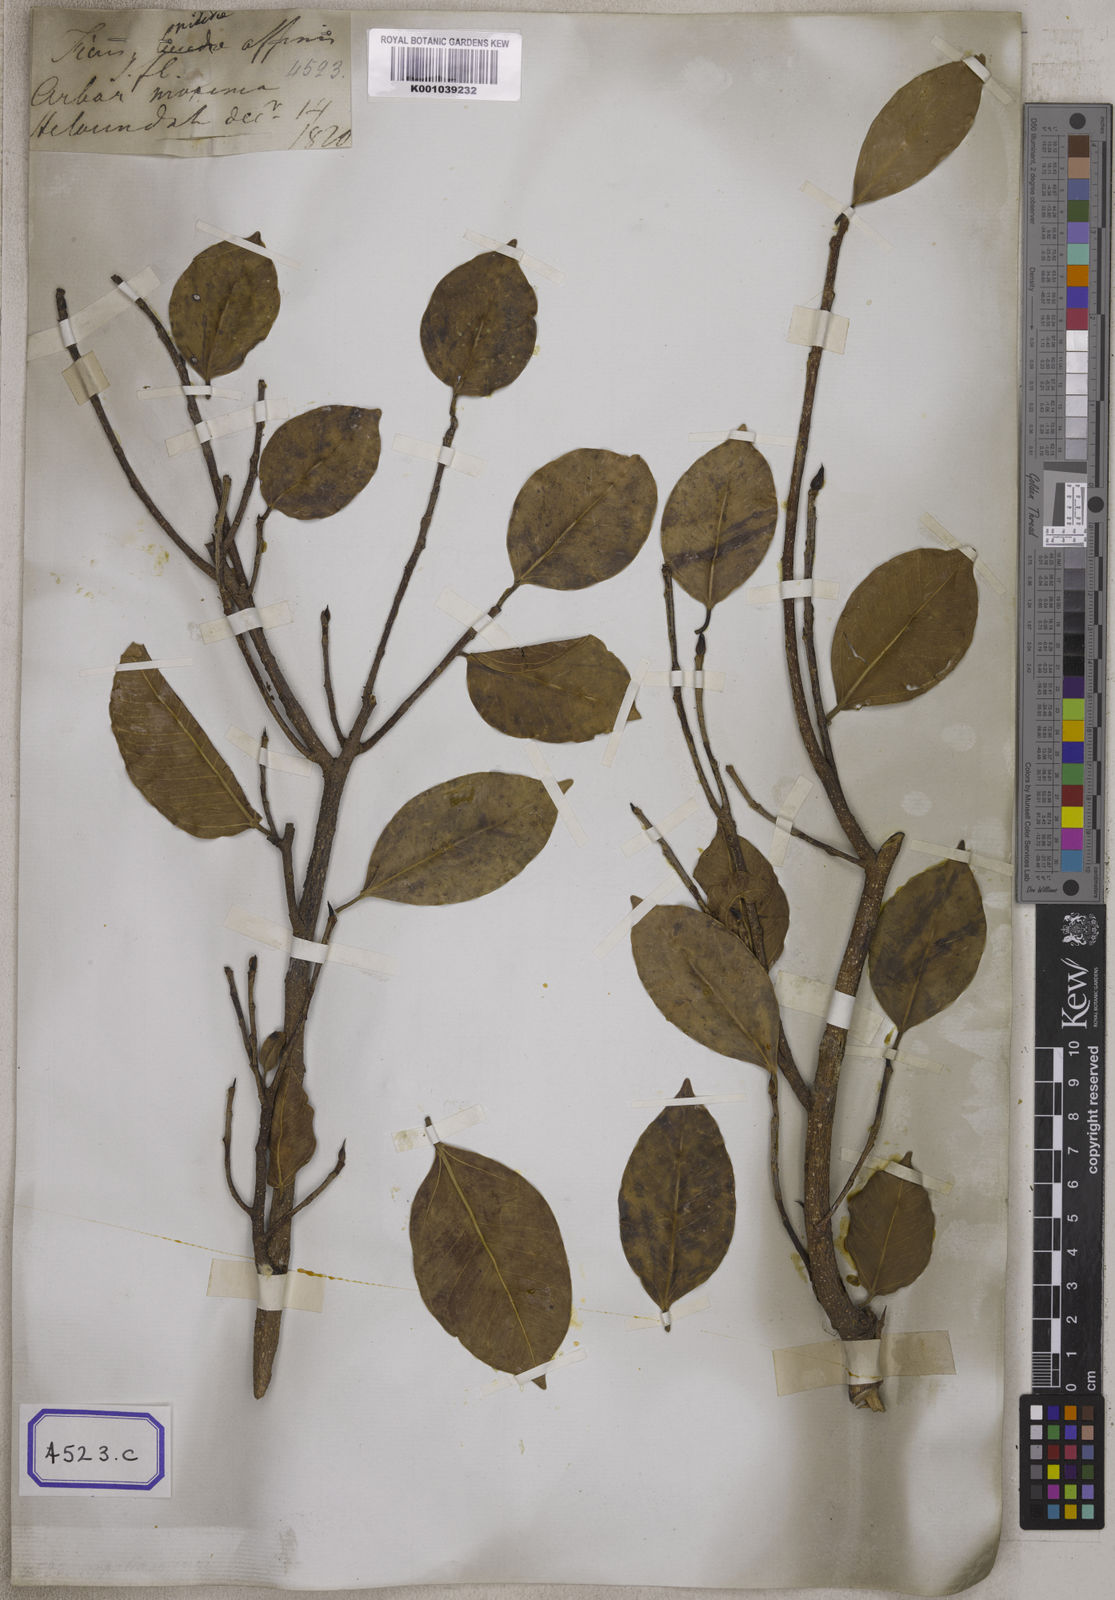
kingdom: Plantae
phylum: Tracheophyta
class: Magnoliopsida
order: Rosales
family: Moraceae
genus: Ficus
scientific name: Ficus benjamina
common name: Weeping fig
